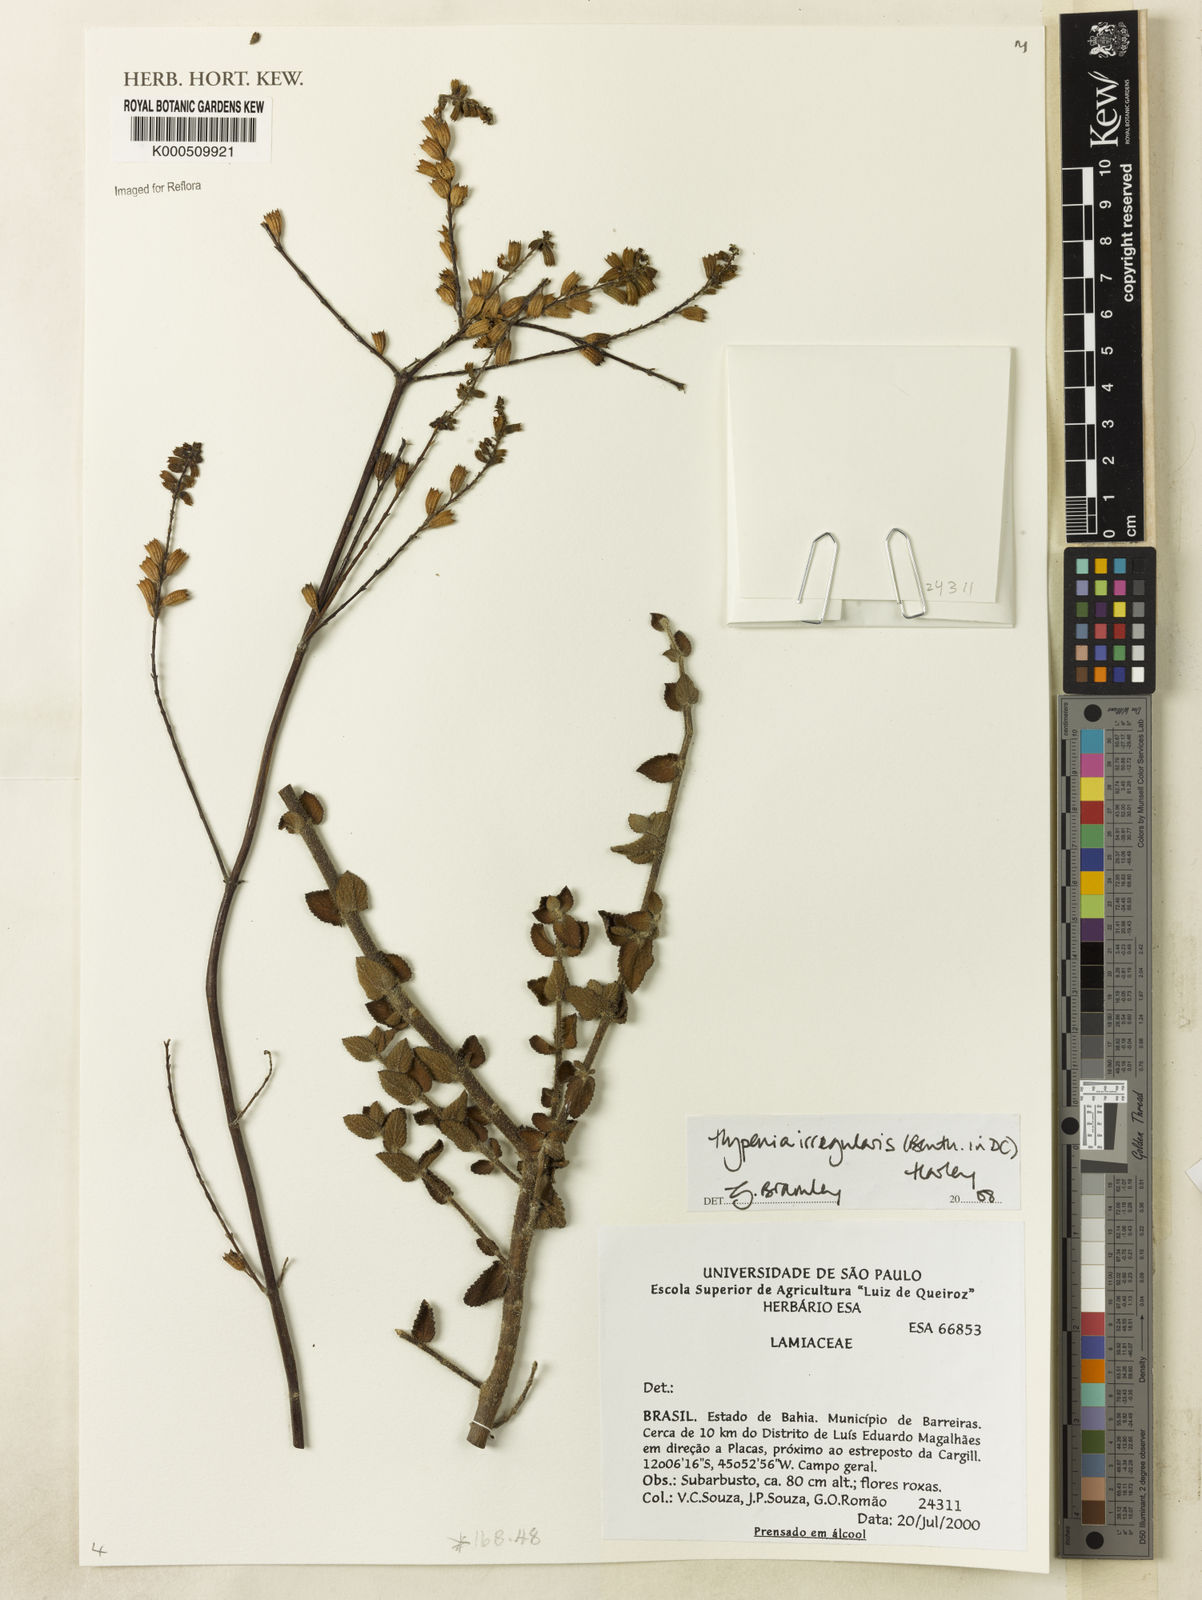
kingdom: Plantae
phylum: Tracheophyta
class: Magnoliopsida
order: Lamiales
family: Lamiaceae
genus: Hypenia
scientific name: Hypenia irregularis
